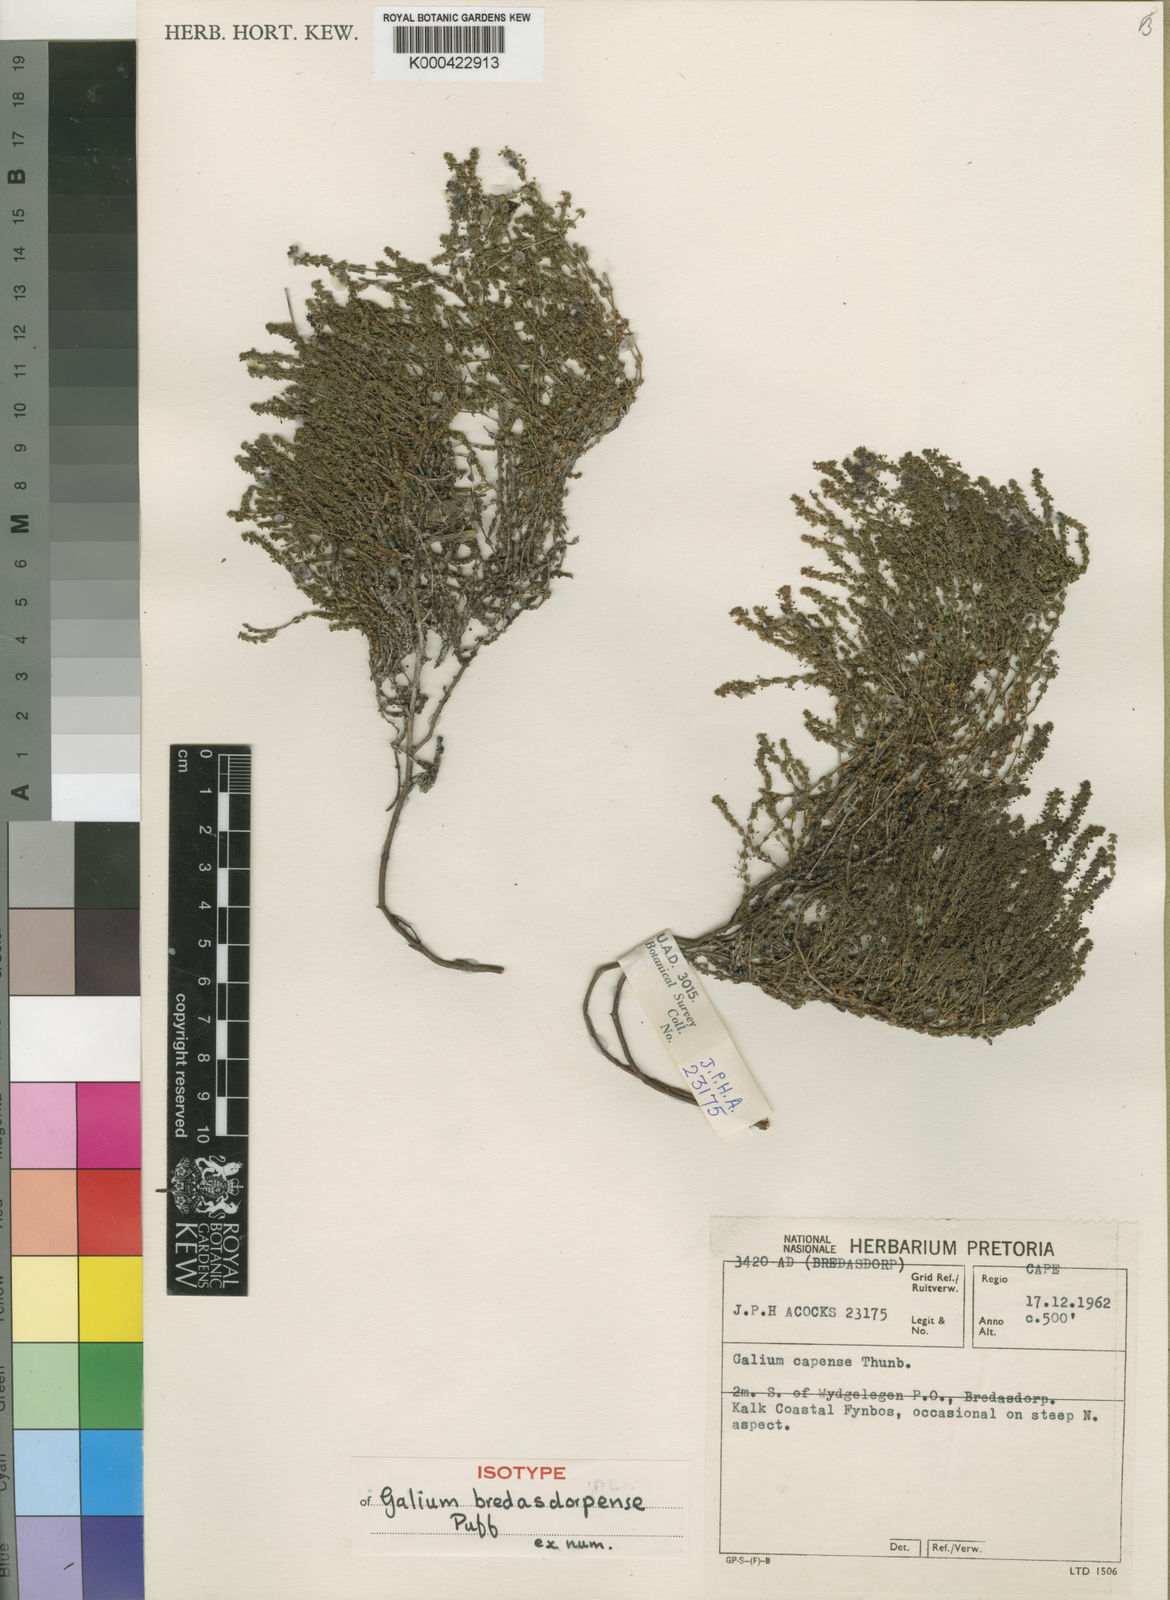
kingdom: Plantae
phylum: Tracheophyta
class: Magnoliopsida
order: Gentianales
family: Rubiaceae
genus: Galium
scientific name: Galium bredasdorpense
